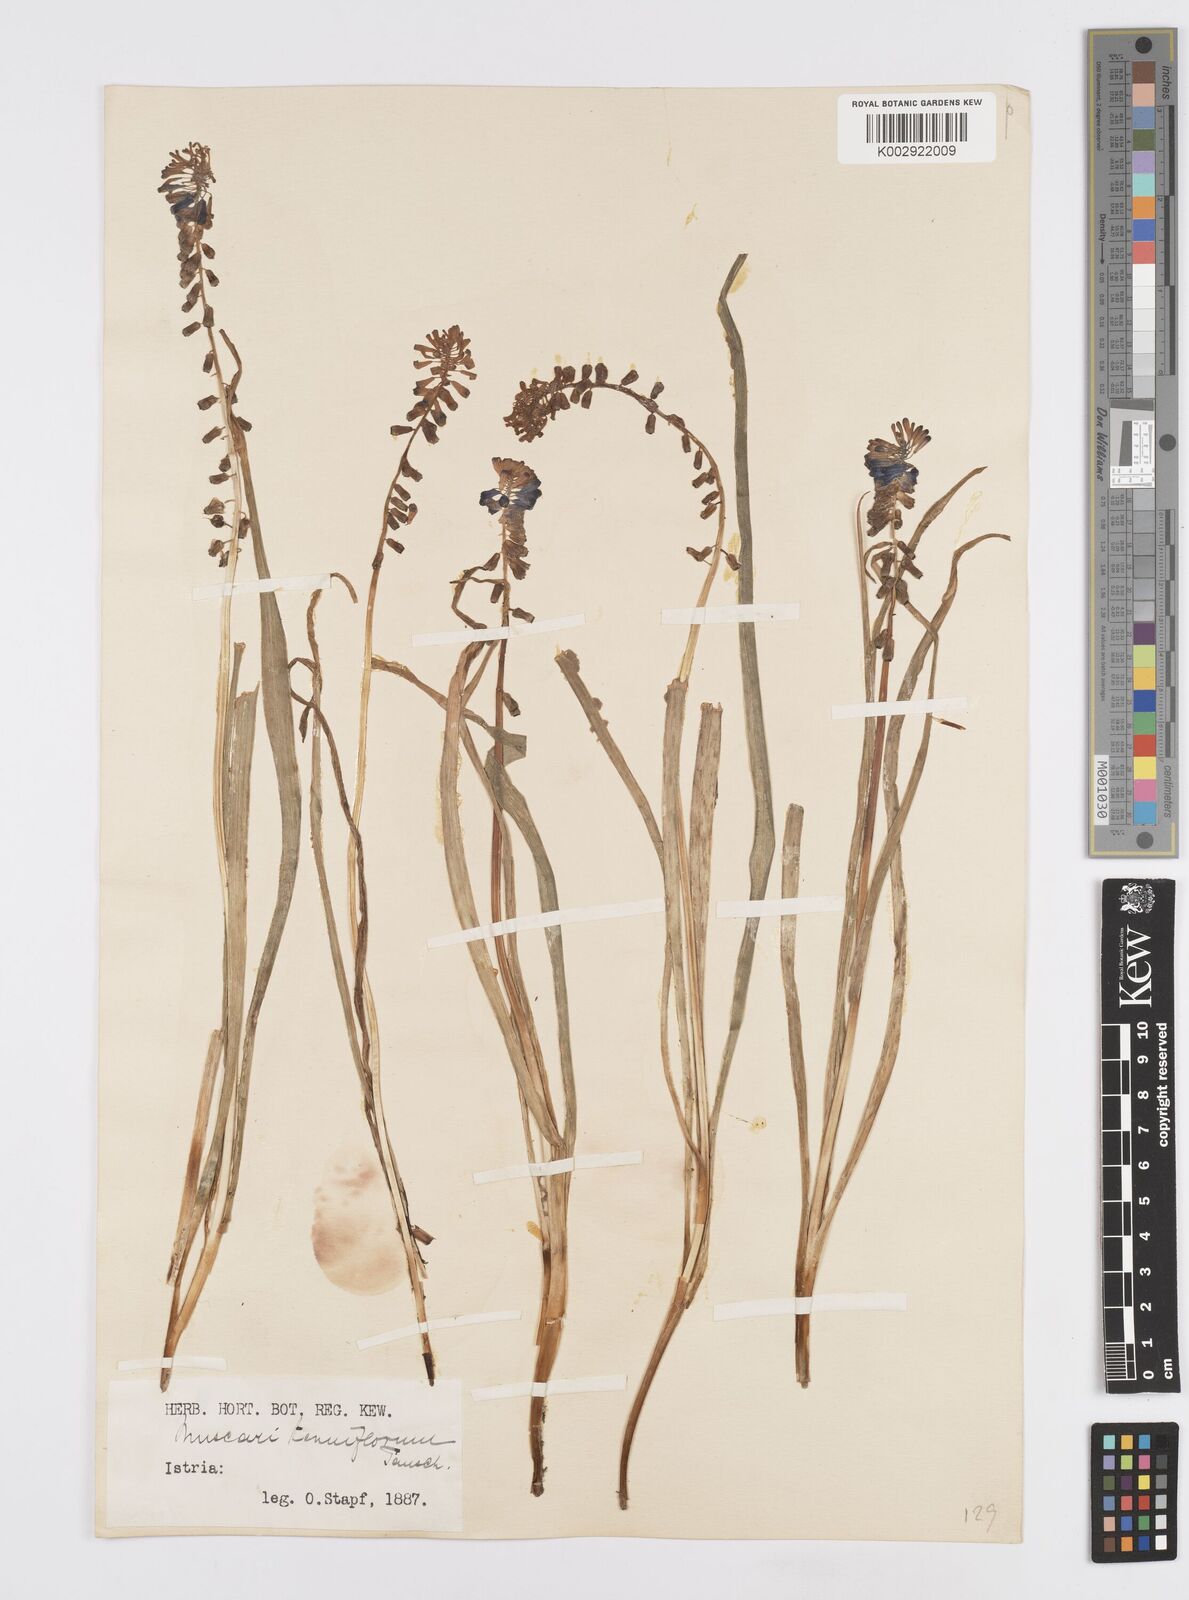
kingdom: Plantae
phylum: Tracheophyta
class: Liliopsida
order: Asparagales
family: Asparagaceae
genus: Muscari
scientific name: Muscari tenuiflorum
